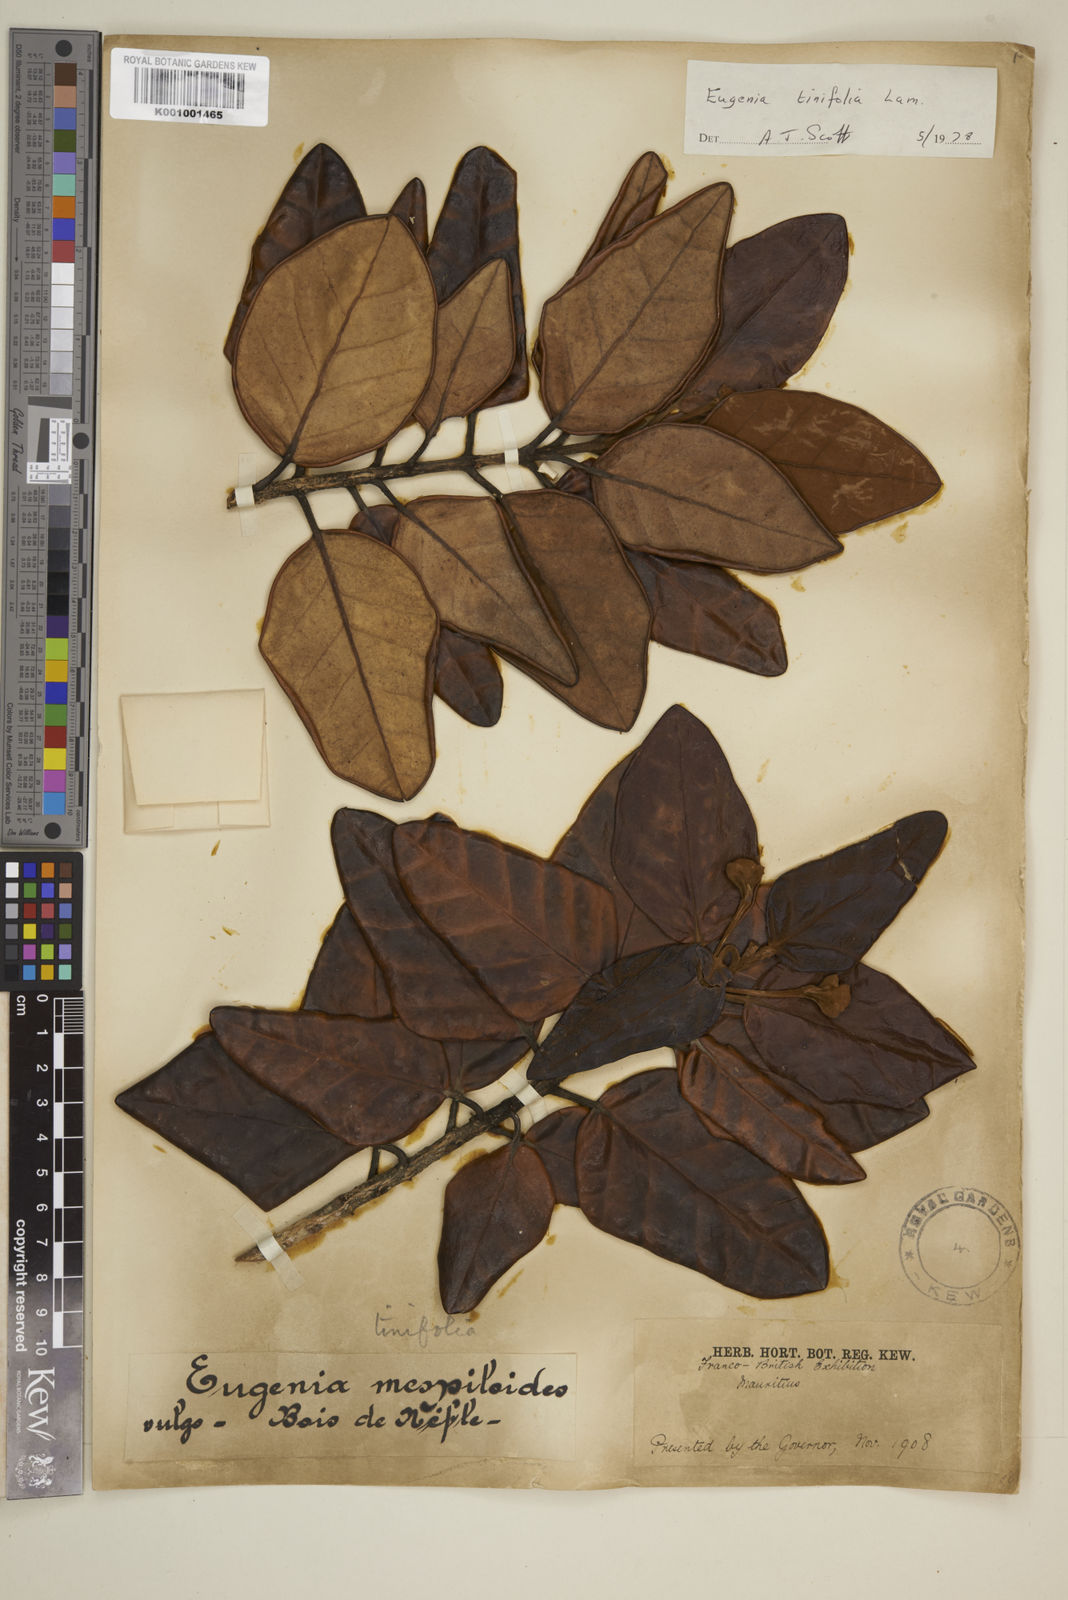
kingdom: Plantae
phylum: Tracheophyta
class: Magnoliopsida
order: Myrtales
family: Myrtaceae
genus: Eugenia
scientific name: Eugenia tinifolia
